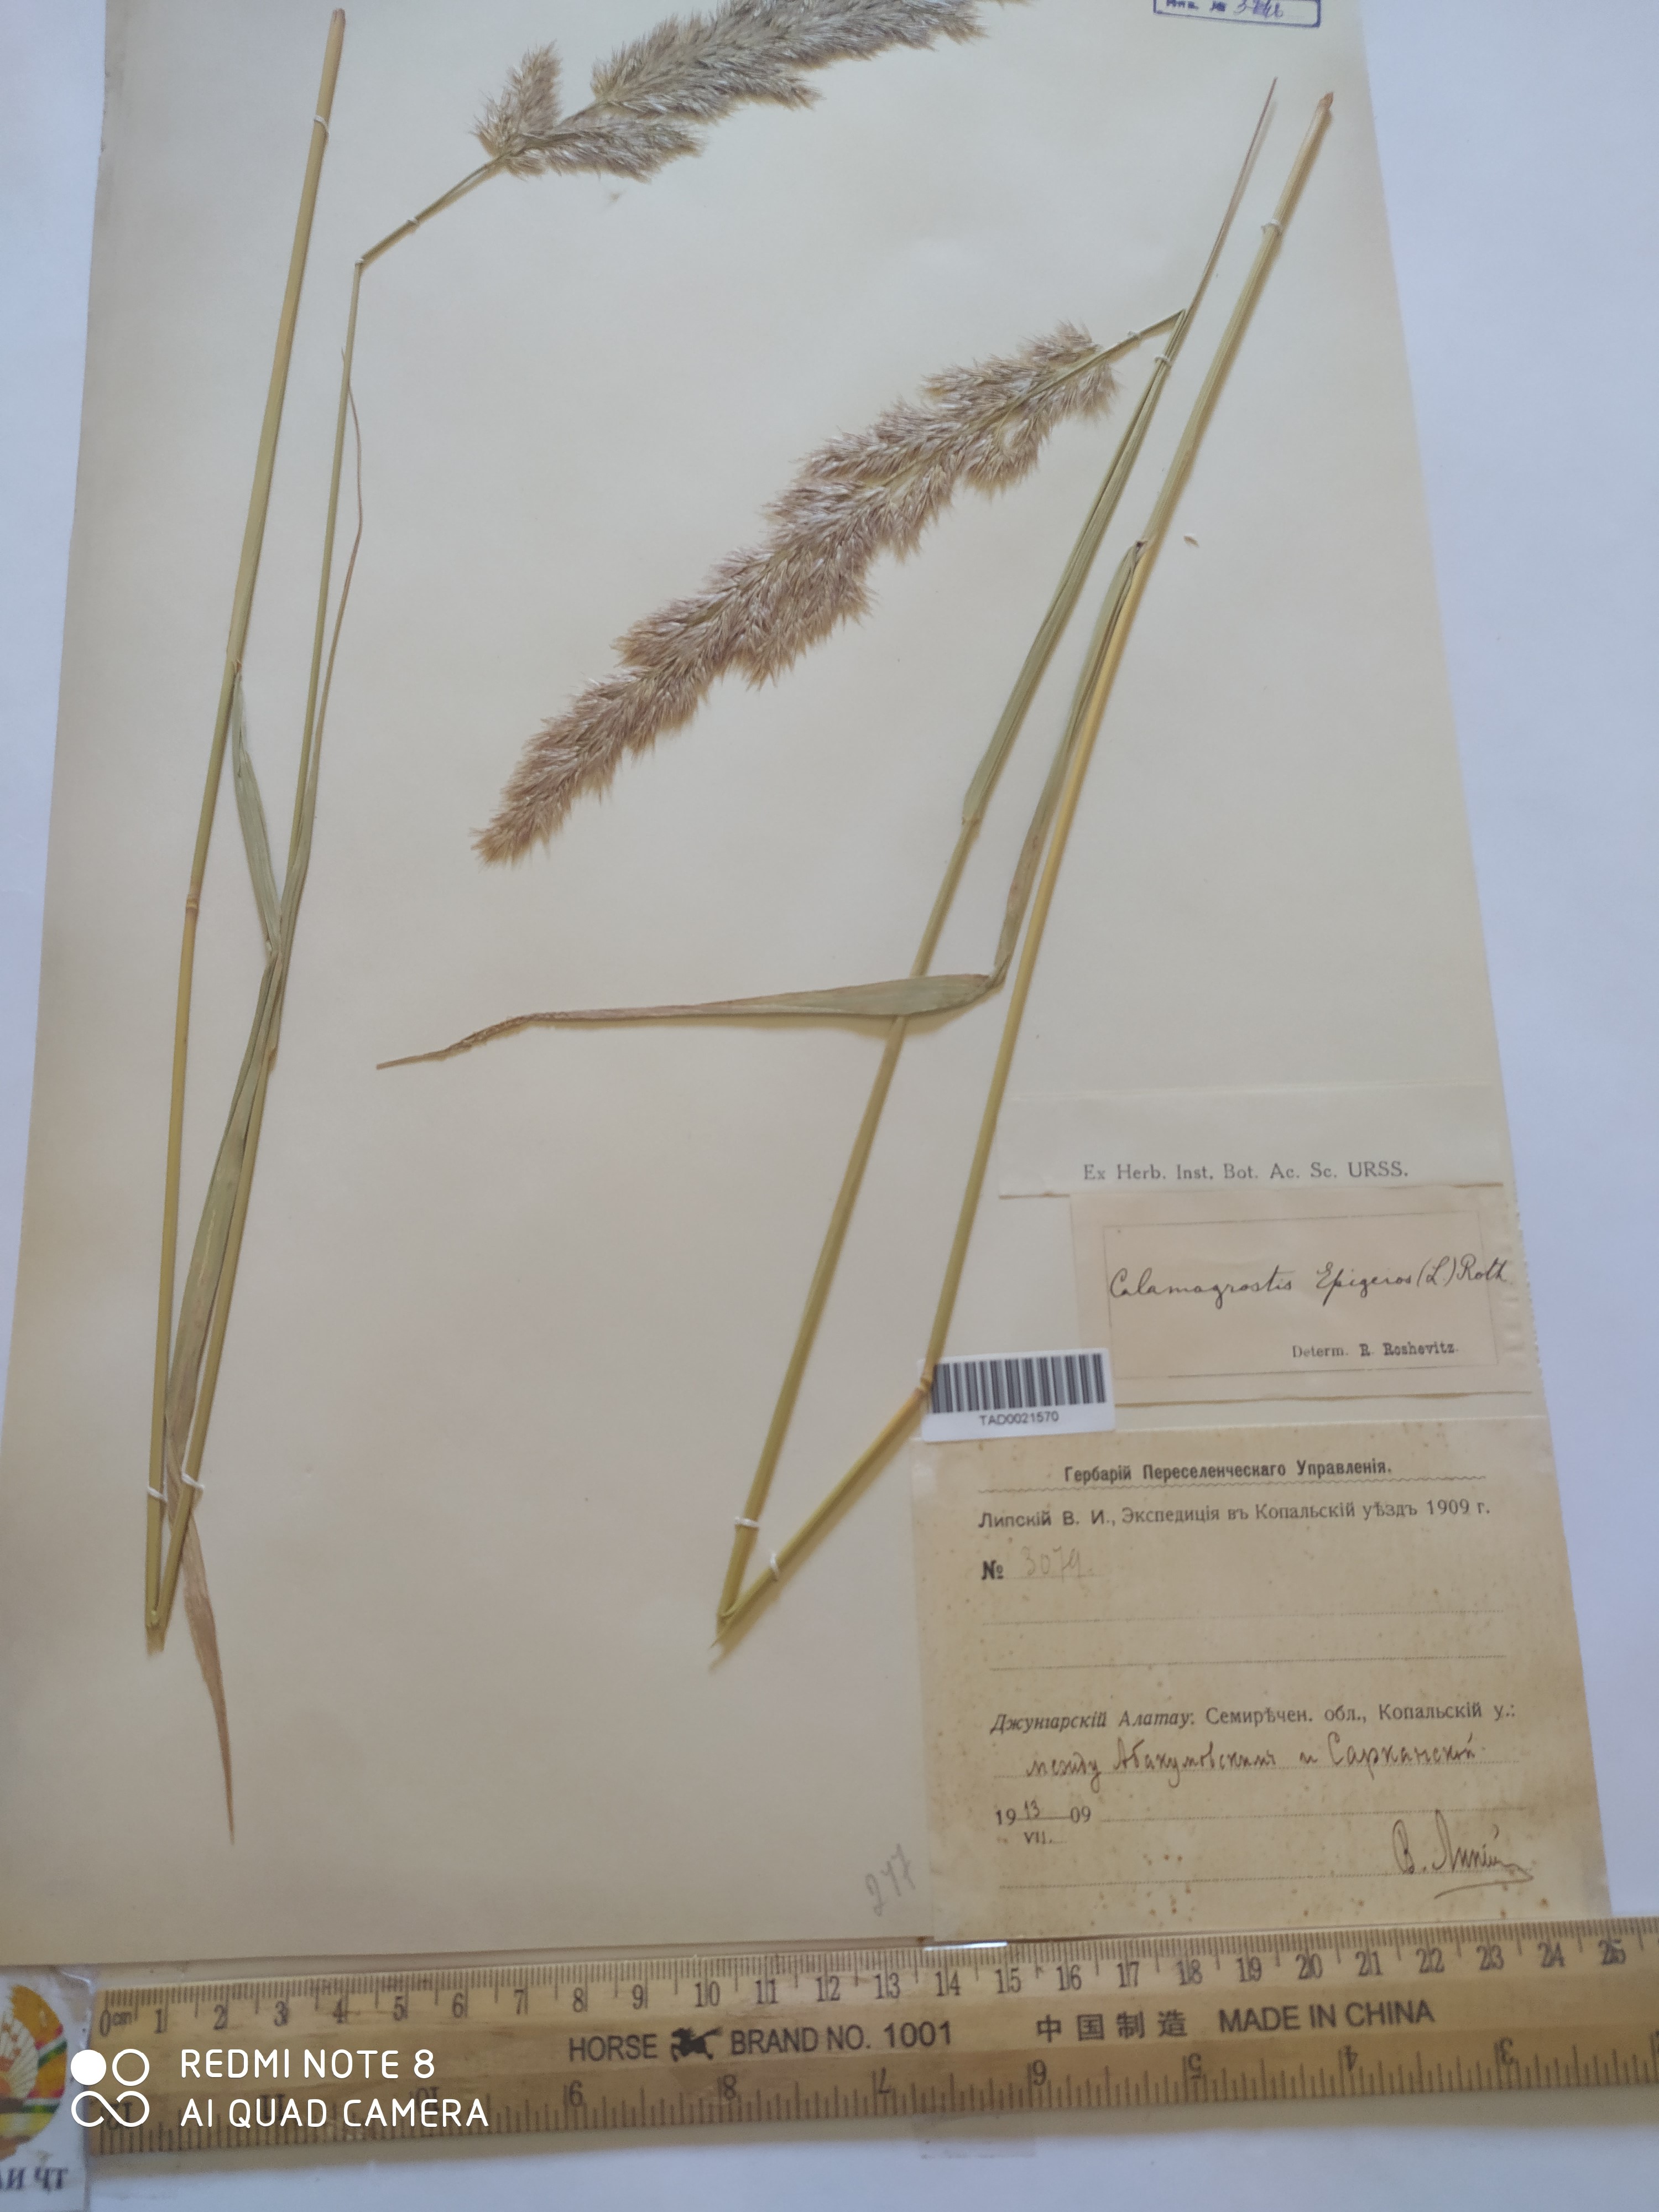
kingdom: Plantae
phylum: Tracheophyta
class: Liliopsida
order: Poales
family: Poaceae
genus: Calamagrostis
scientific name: Calamagrostis epigejos
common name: Wood small-reed
